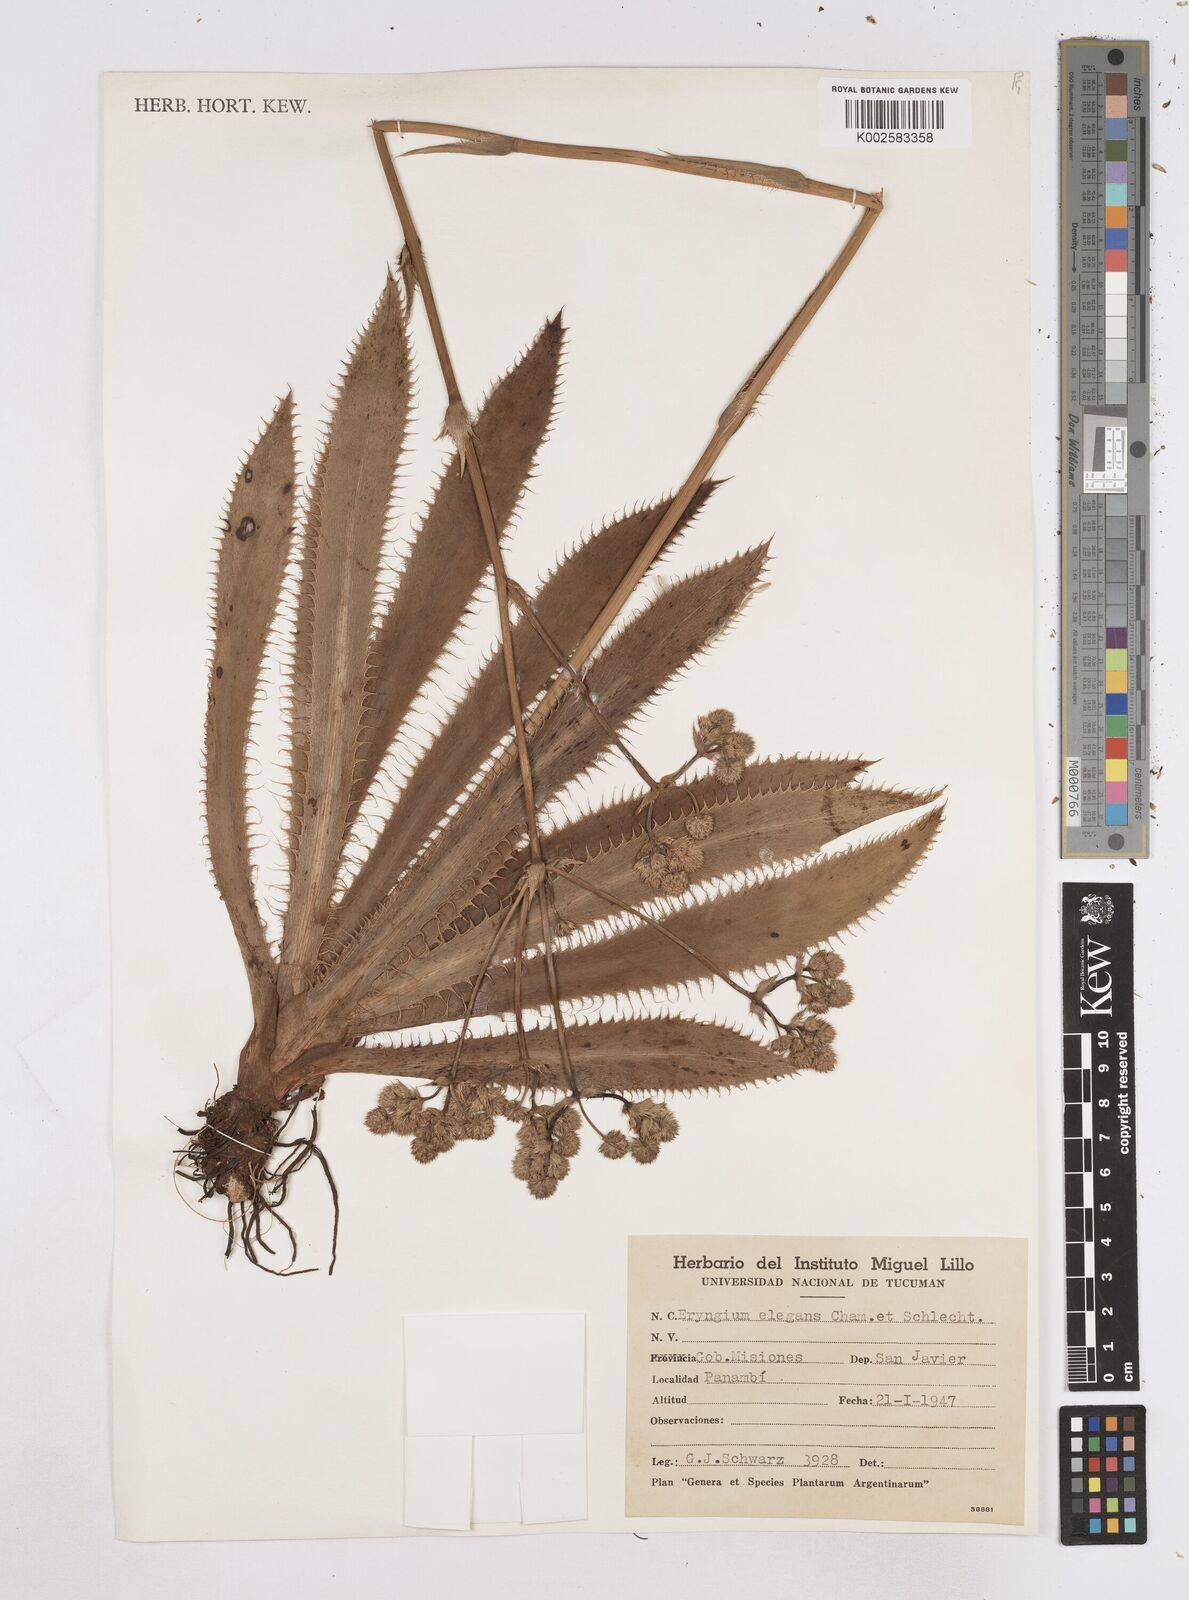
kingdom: Plantae
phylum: Tracheophyta
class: Magnoliopsida
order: Apiales
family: Apiaceae
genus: Eryngium
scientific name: Eryngium elegans
